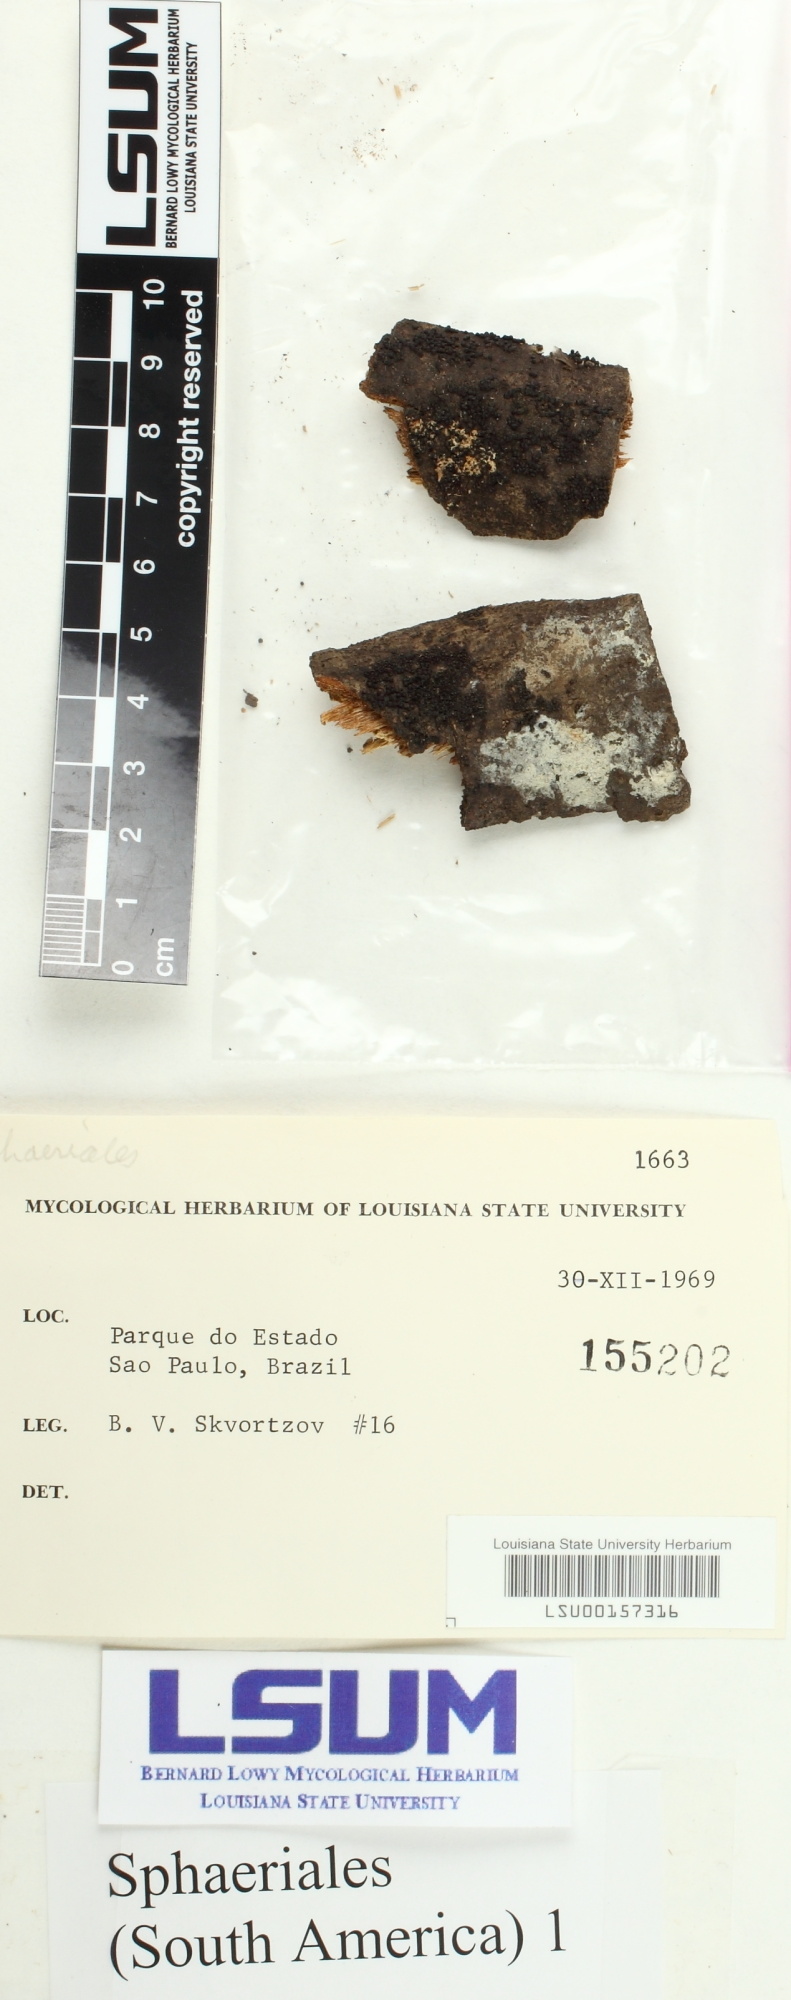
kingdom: Fungi
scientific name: Fungi
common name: Fungi
